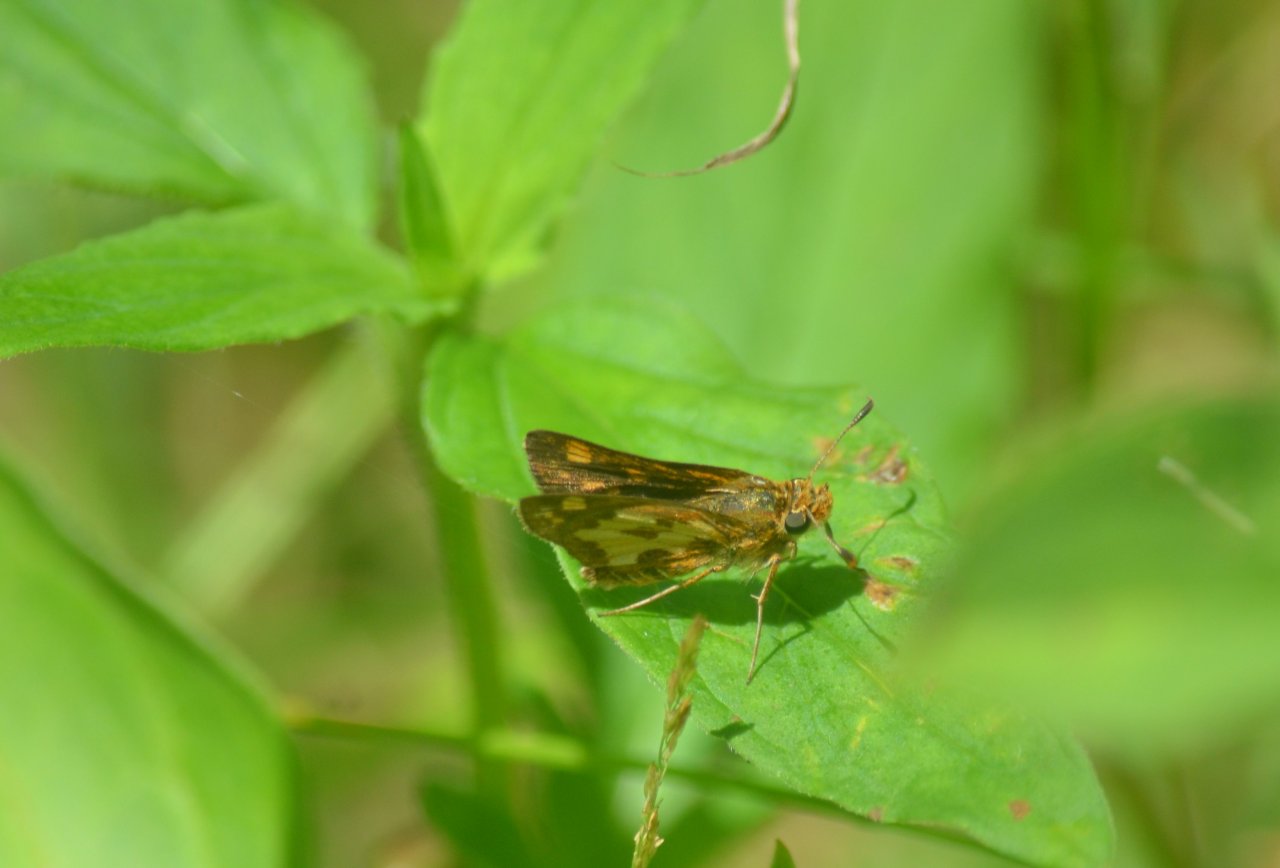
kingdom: Animalia
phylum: Arthropoda
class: Insecta
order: Lepidoptera
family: Hesperiidae
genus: Polites
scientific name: Polites coras
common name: Peck's Skipper
